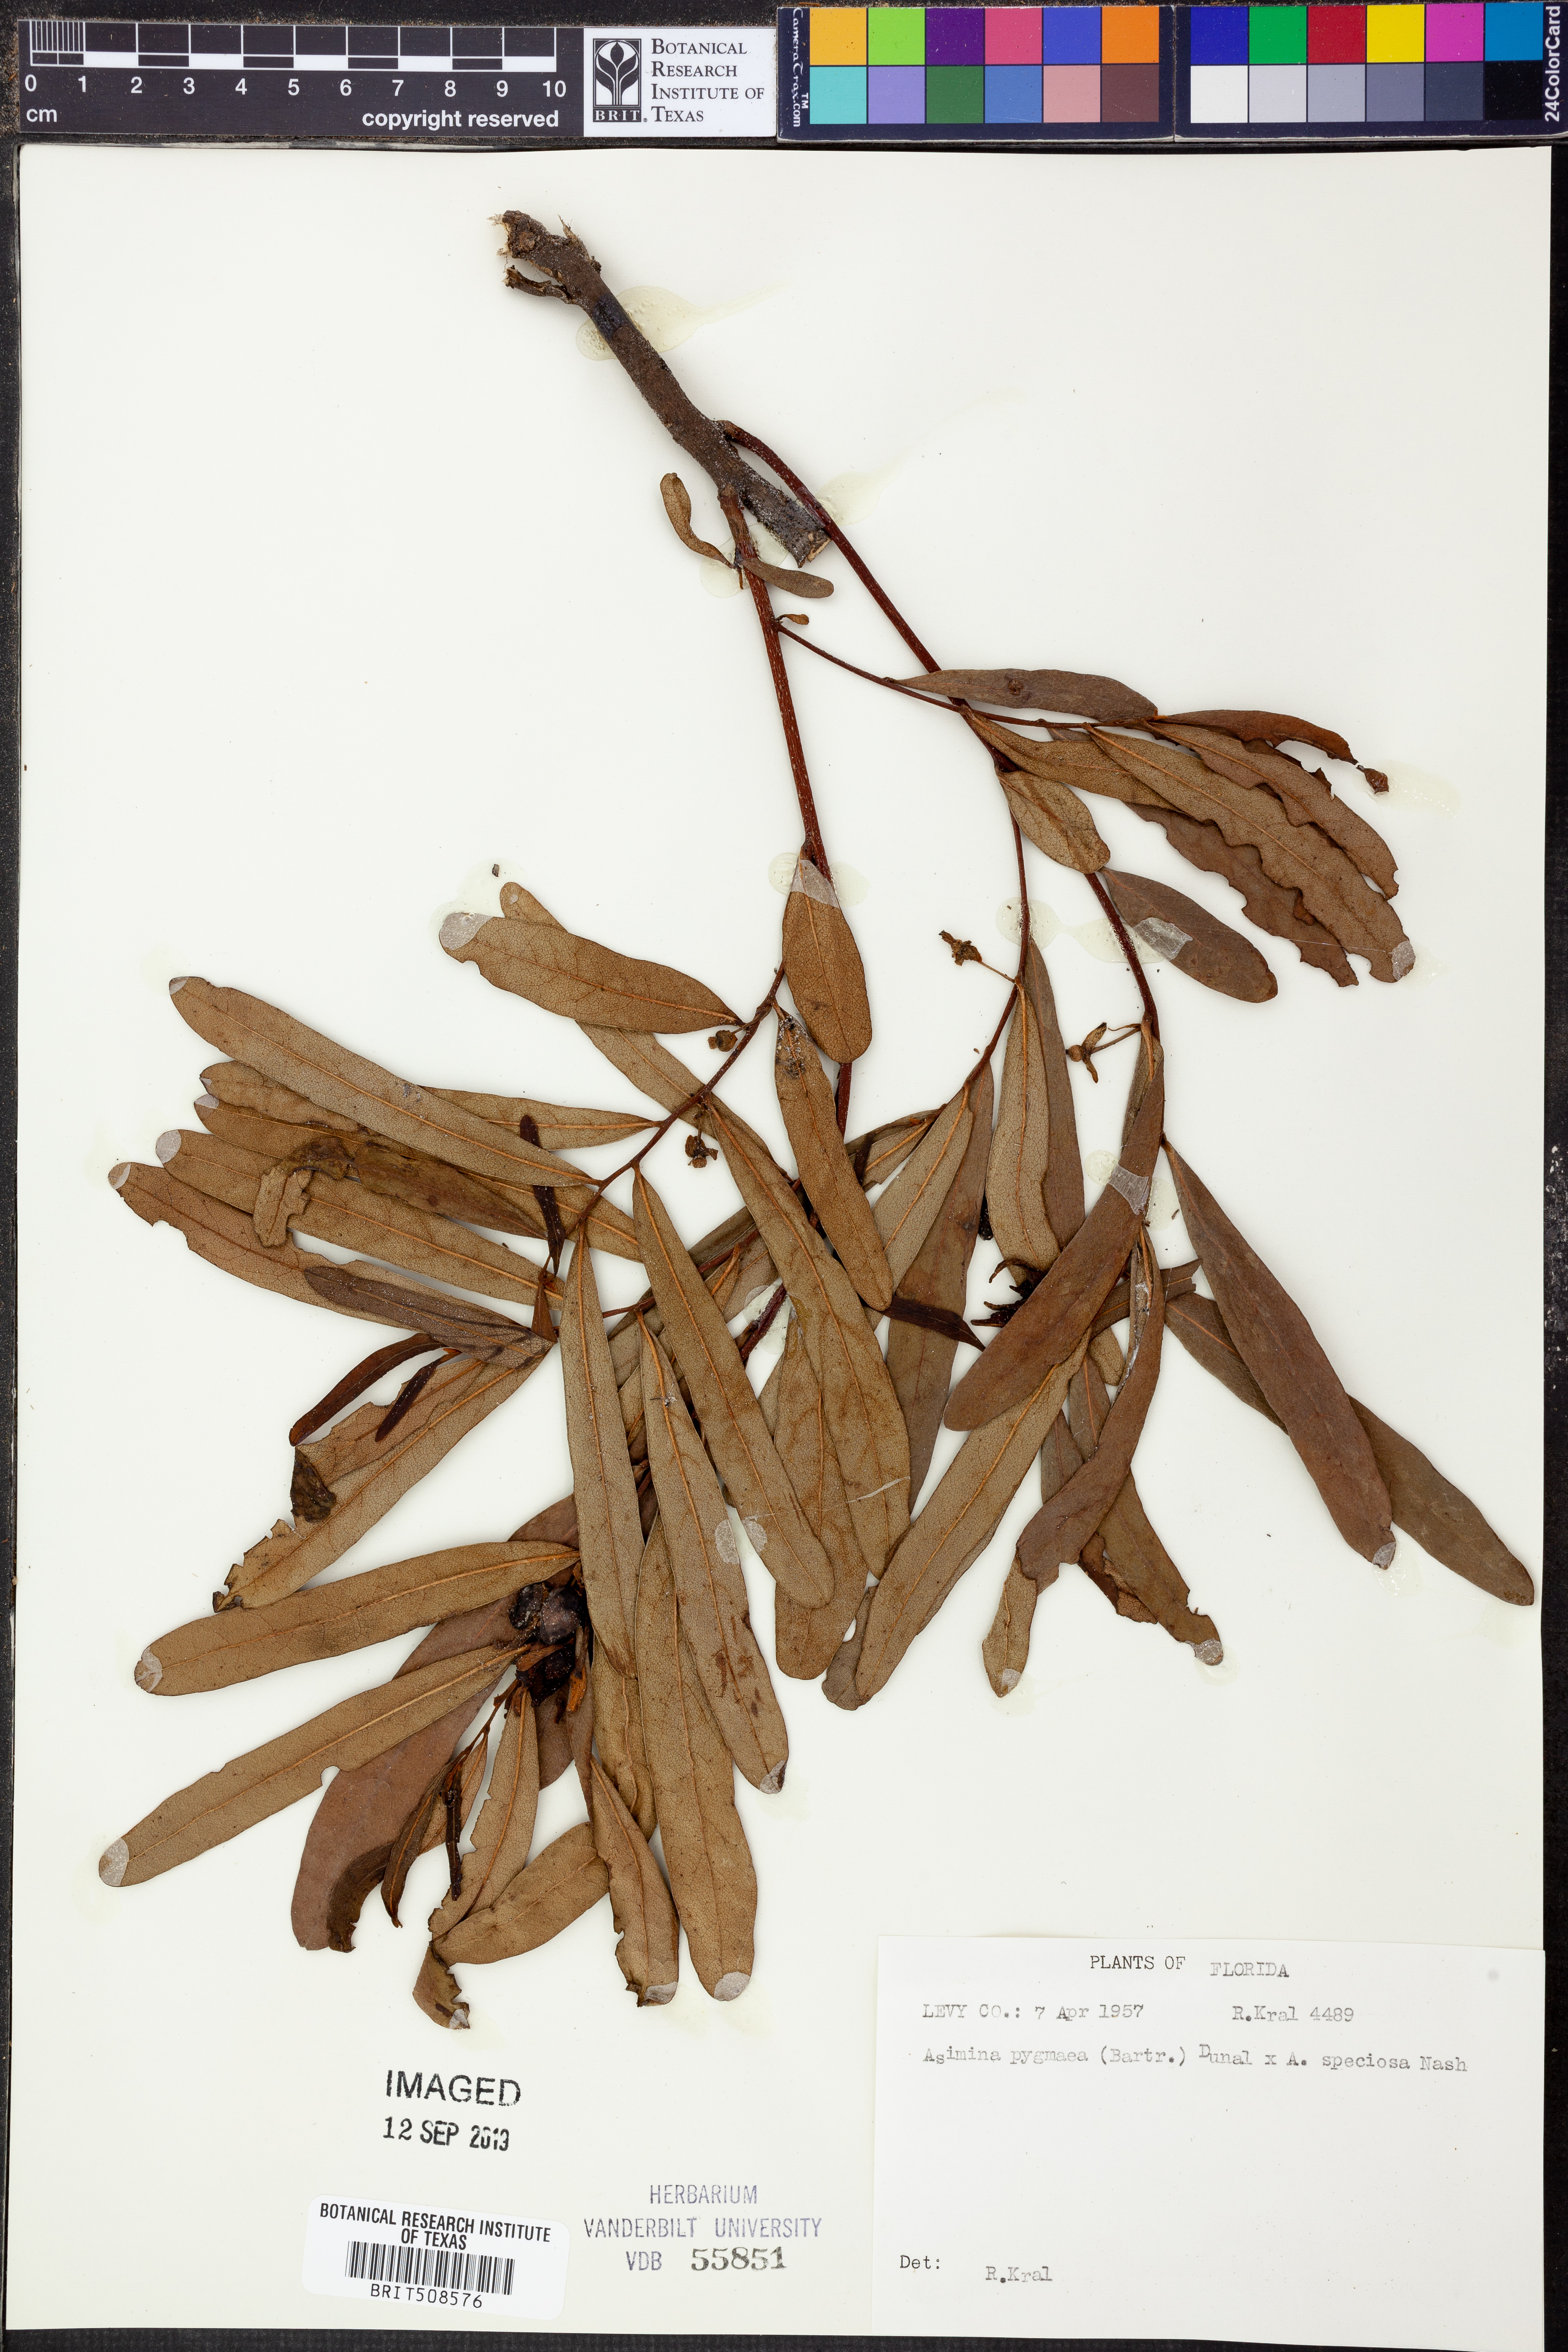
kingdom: Plantae
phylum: Tracheophyta
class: Magnoliopsida
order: Magnoliales
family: Annonaceae
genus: Asimina
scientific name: Asimina pygmaea
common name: Dwarf pawpaw
